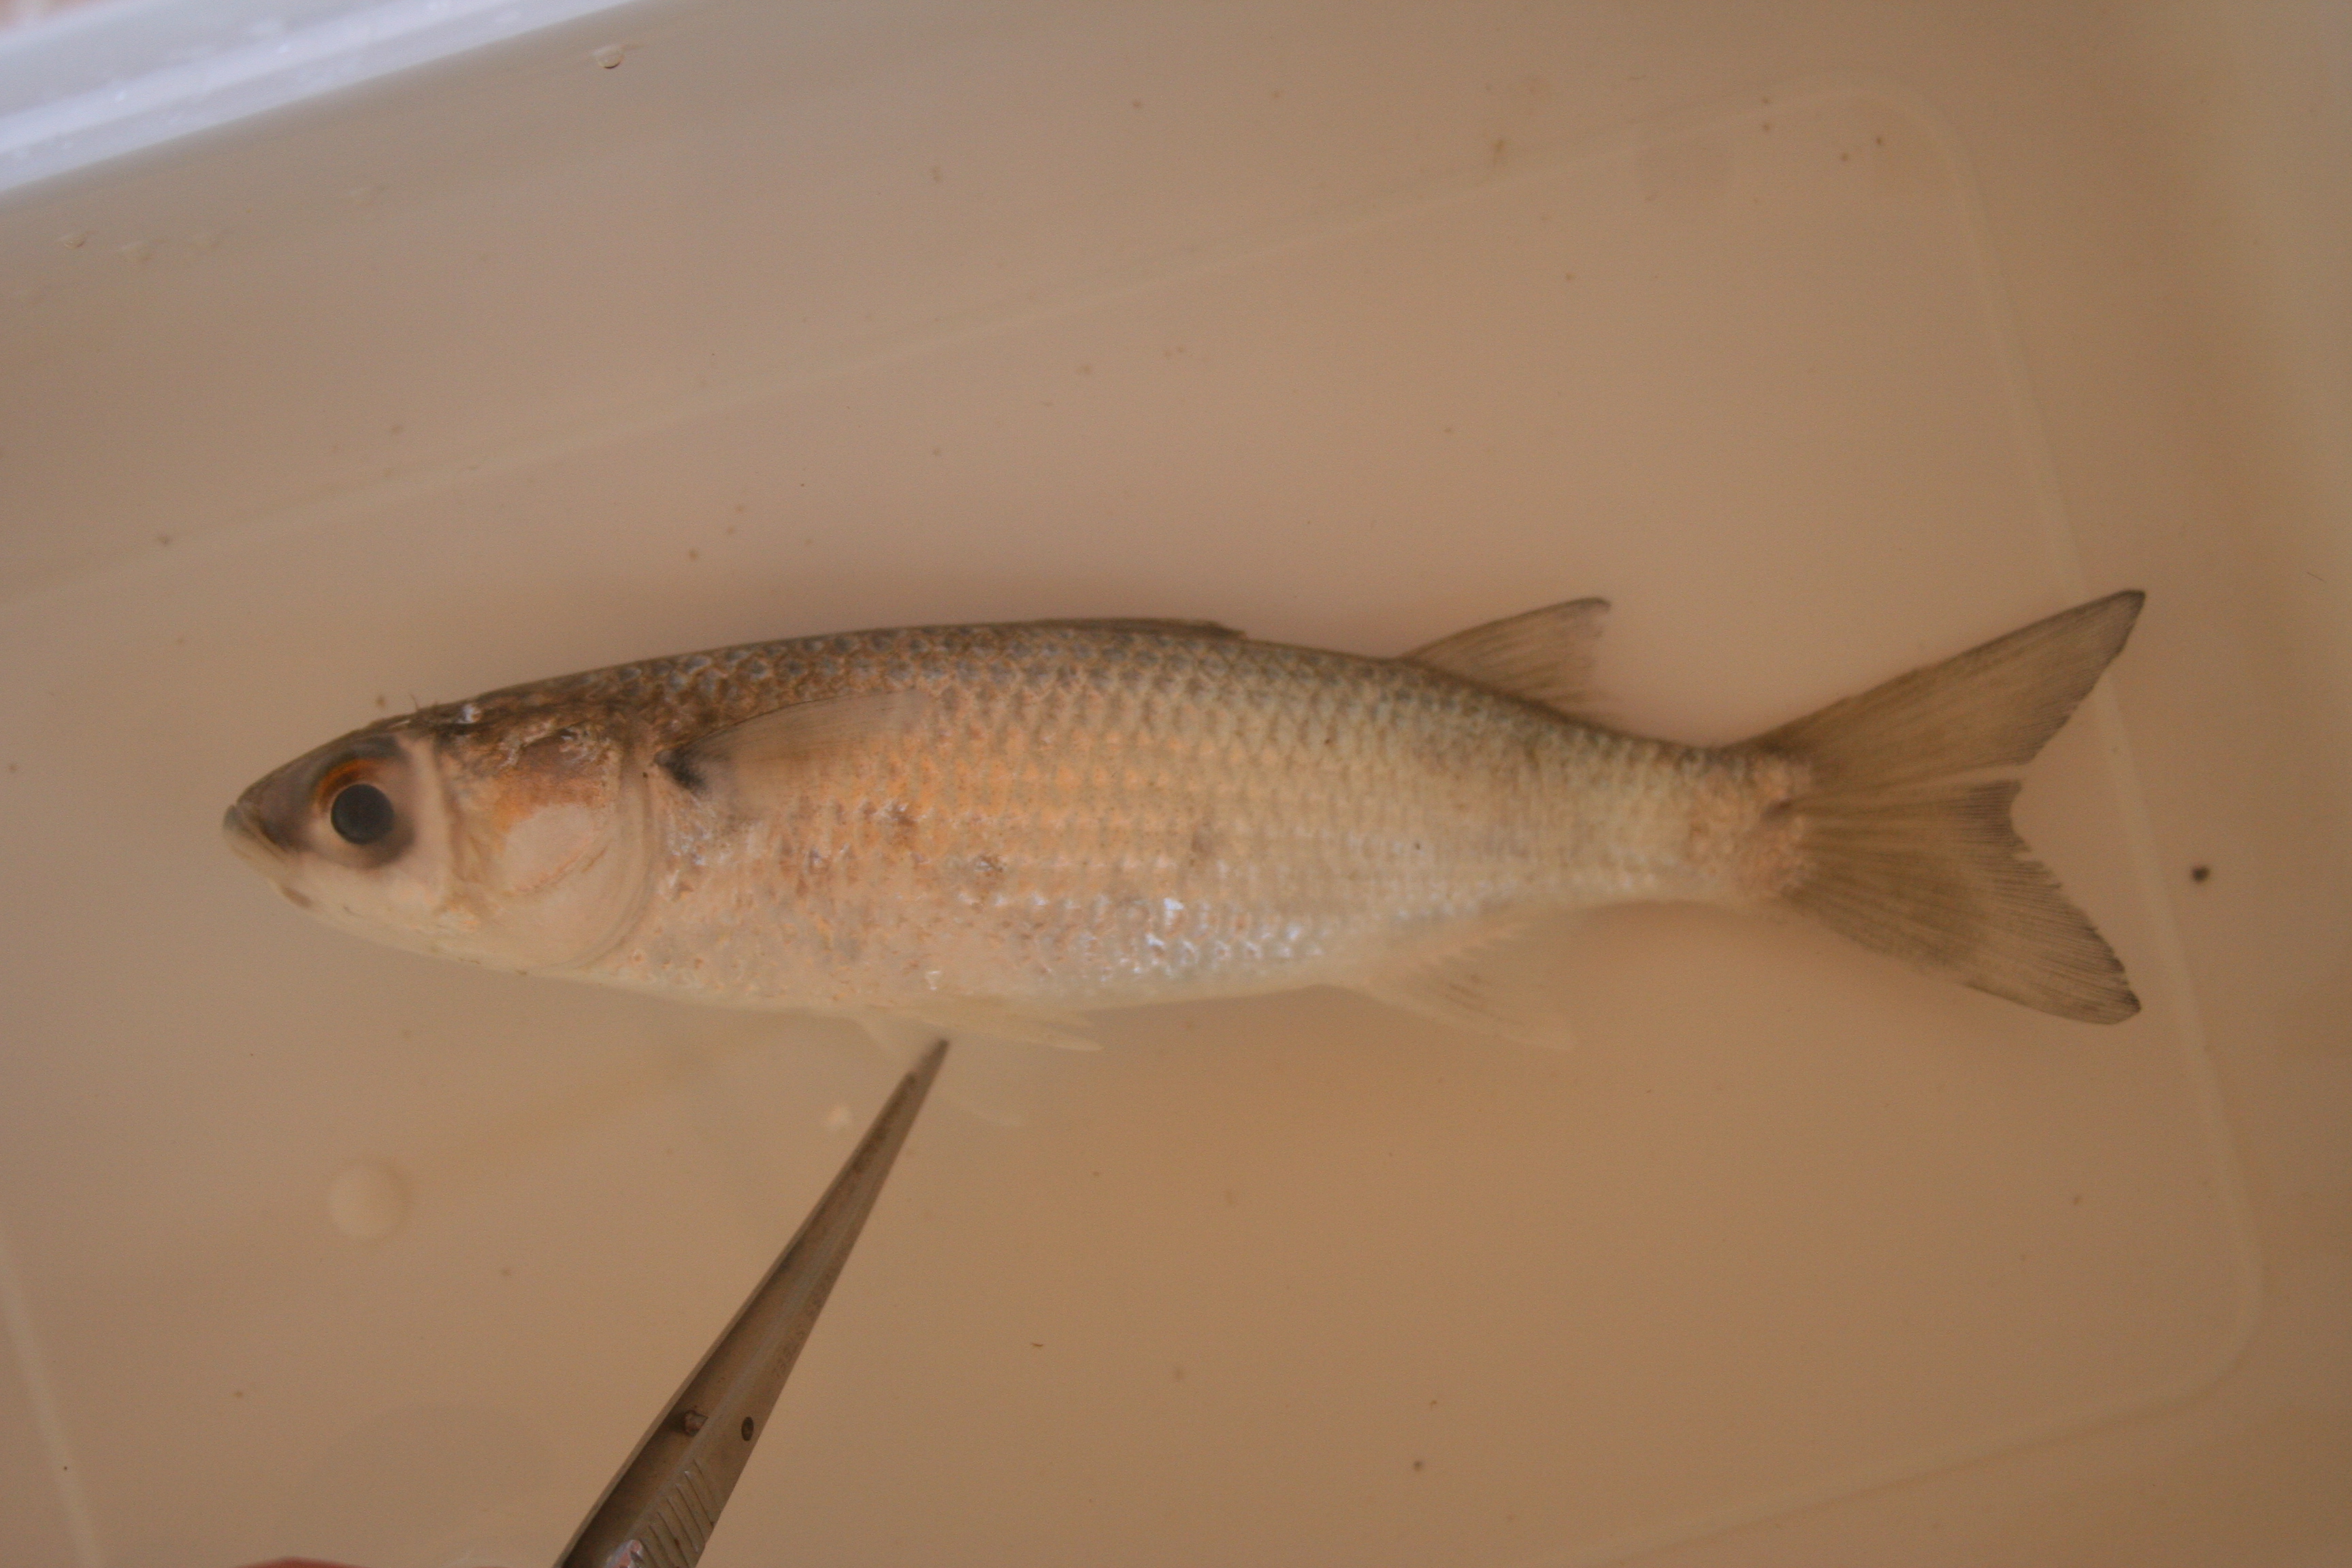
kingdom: Animalia
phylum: Chordata
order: Mugiliformes
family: Mugilidae
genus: Liza
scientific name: Liza
